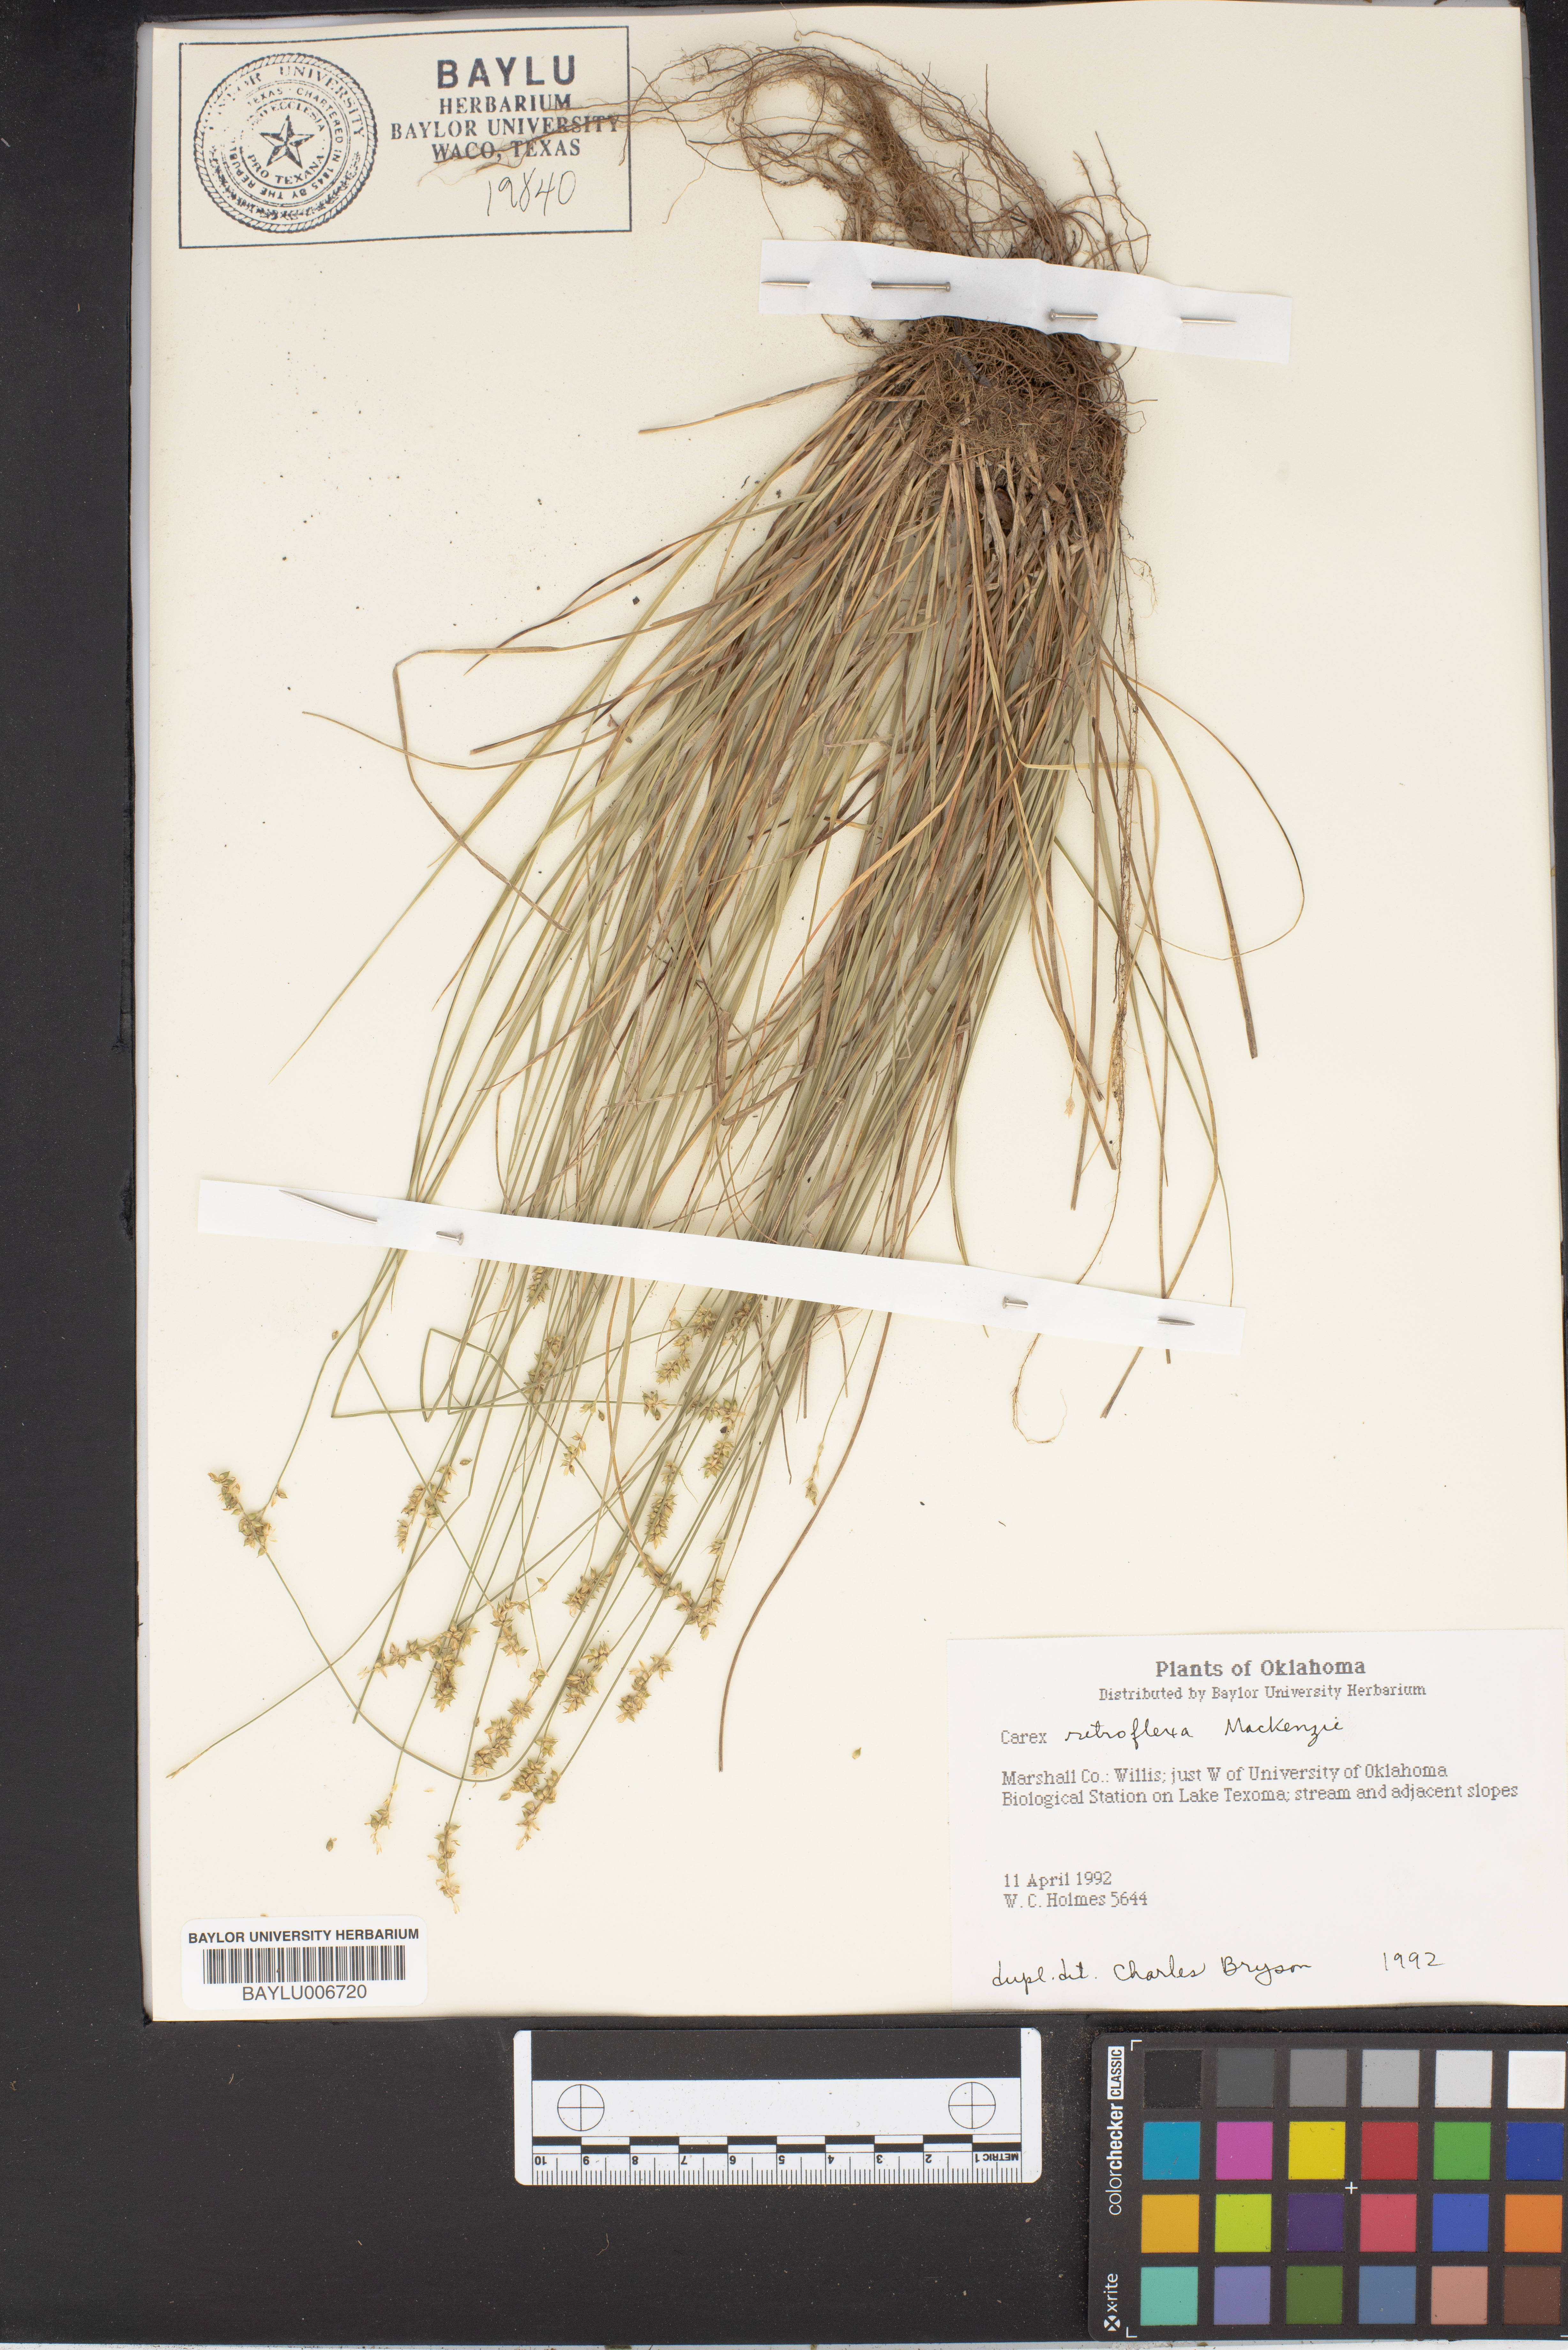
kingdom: Plantae
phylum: Tracheophyta
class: Liliopsida
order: Poales
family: Cyperaceae
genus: Carex
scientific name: Carex retroflexa
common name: Reflexed sedge
